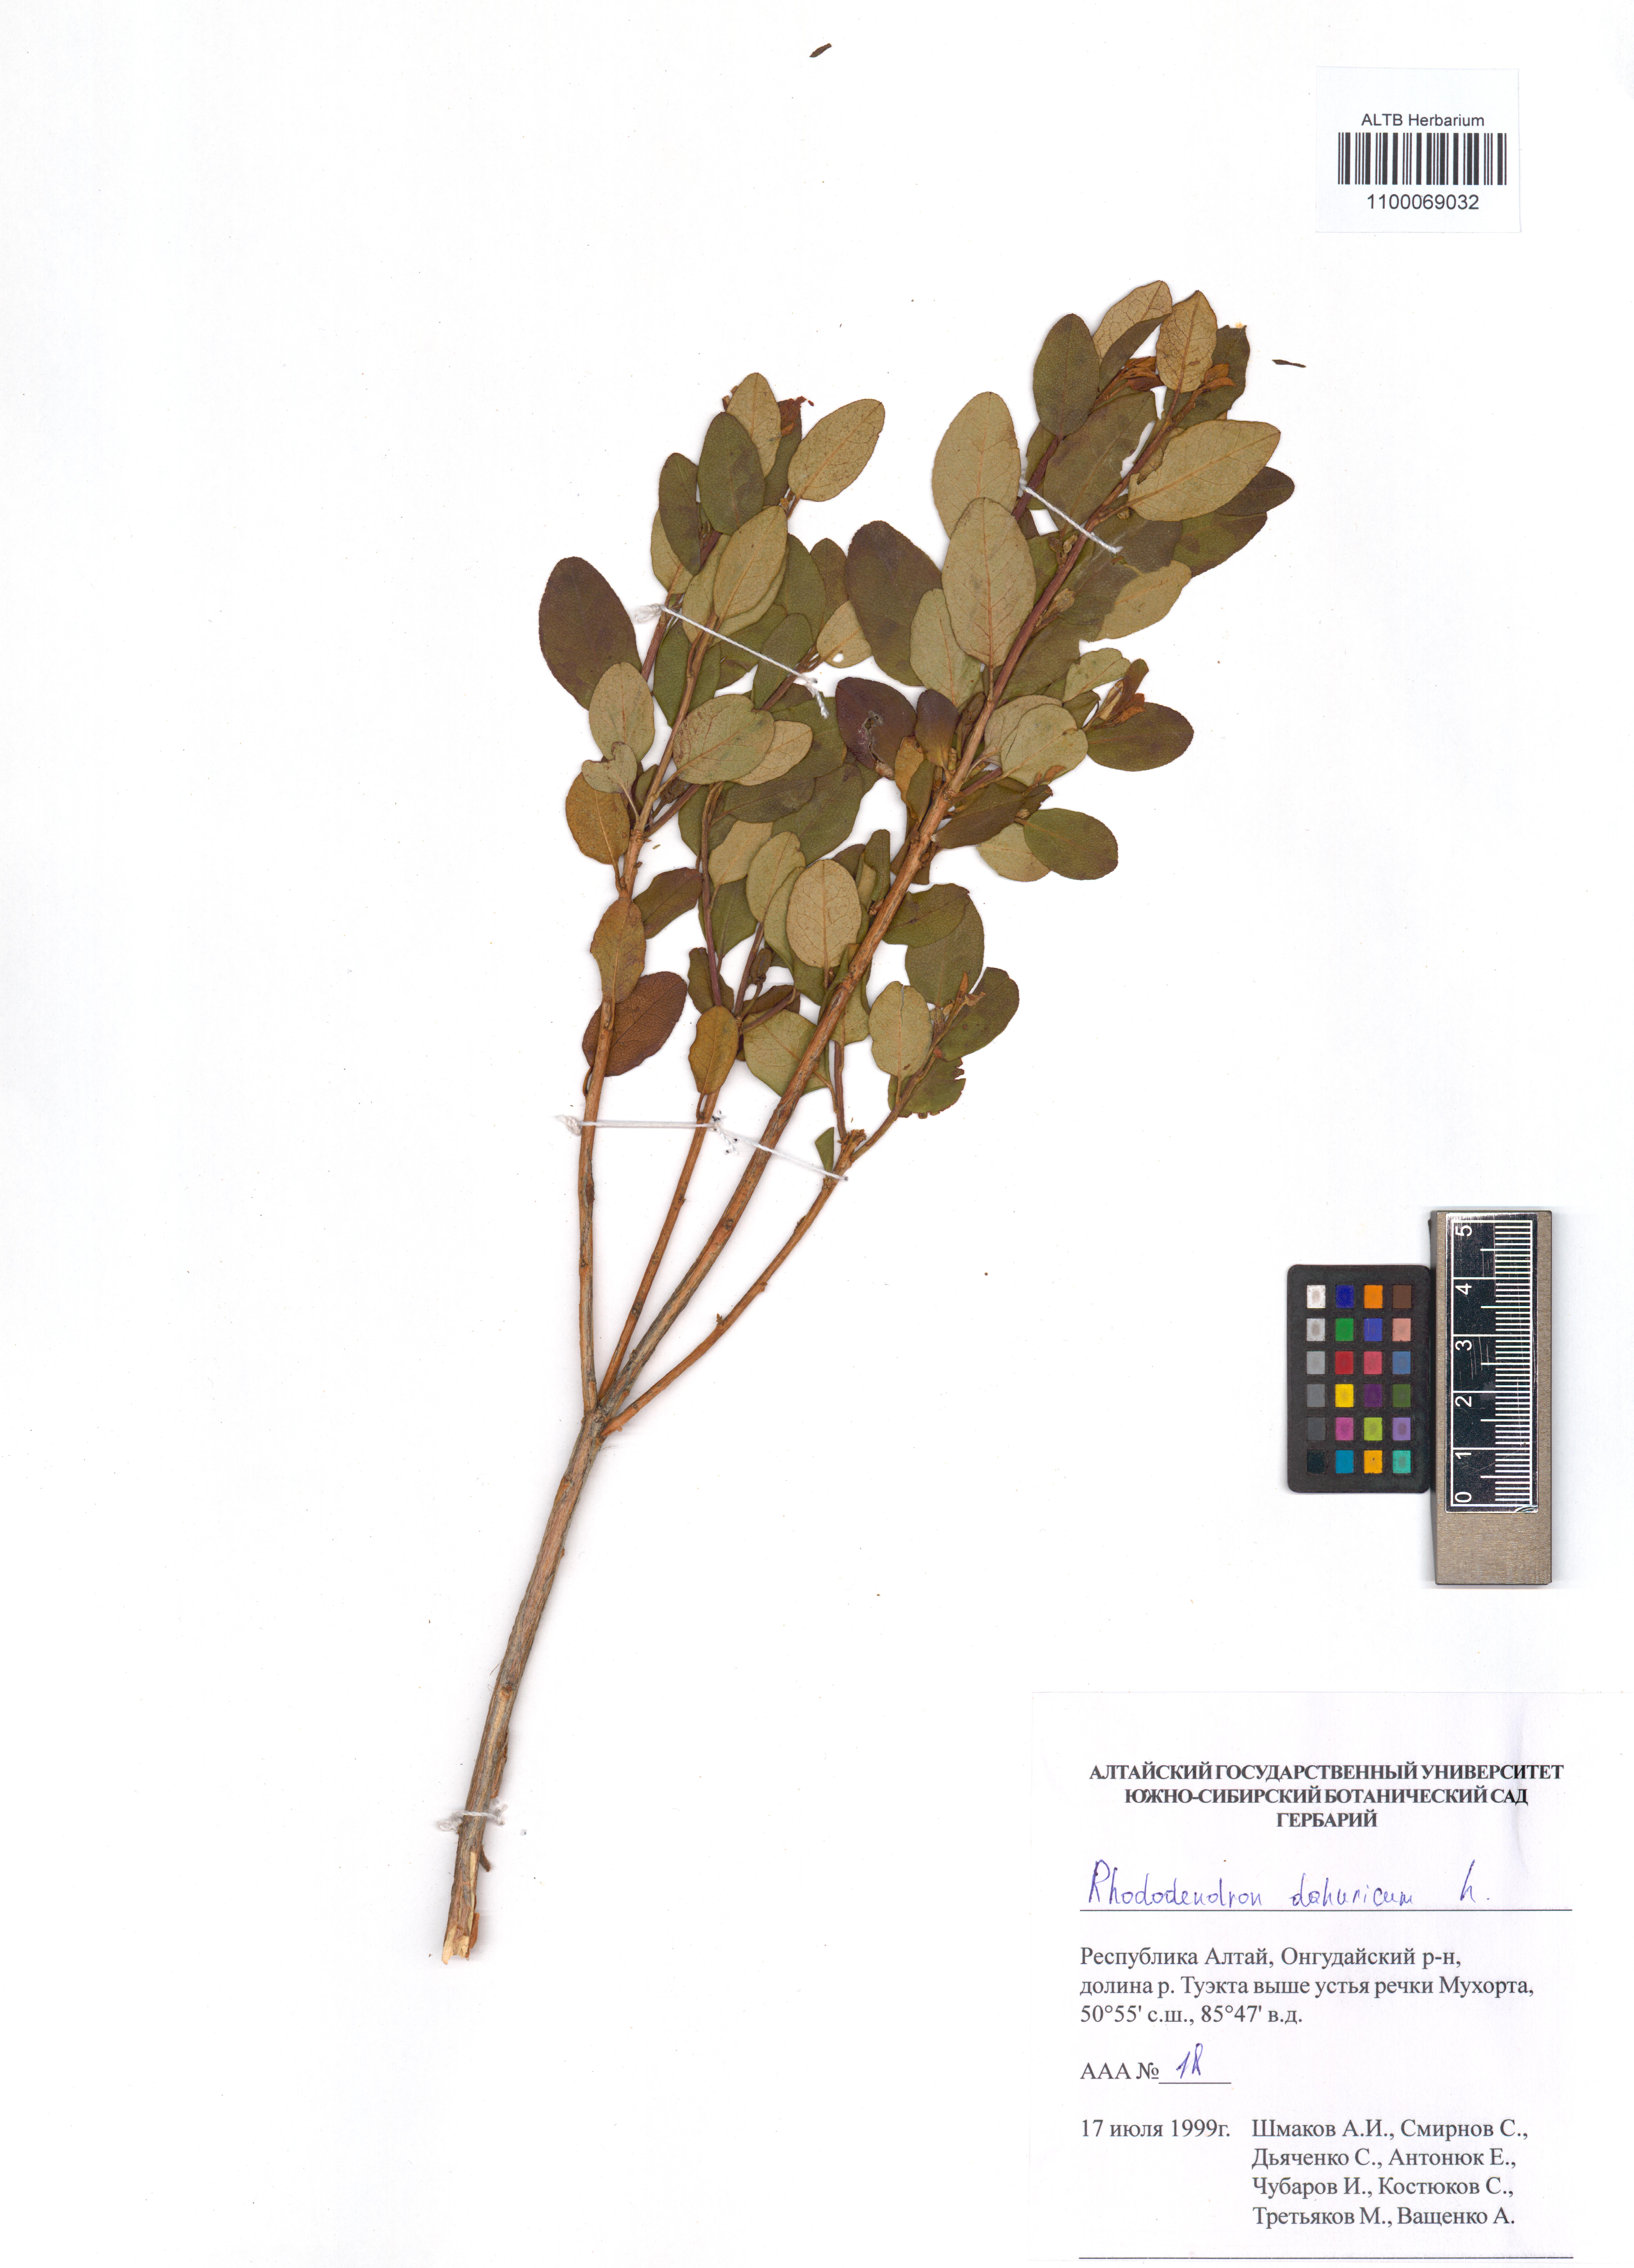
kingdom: Plantae
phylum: Tracheophyta
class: Magnoliopsida
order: Ericales
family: Ericaceae
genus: Rhododendron
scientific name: Rhododendron dauricum
